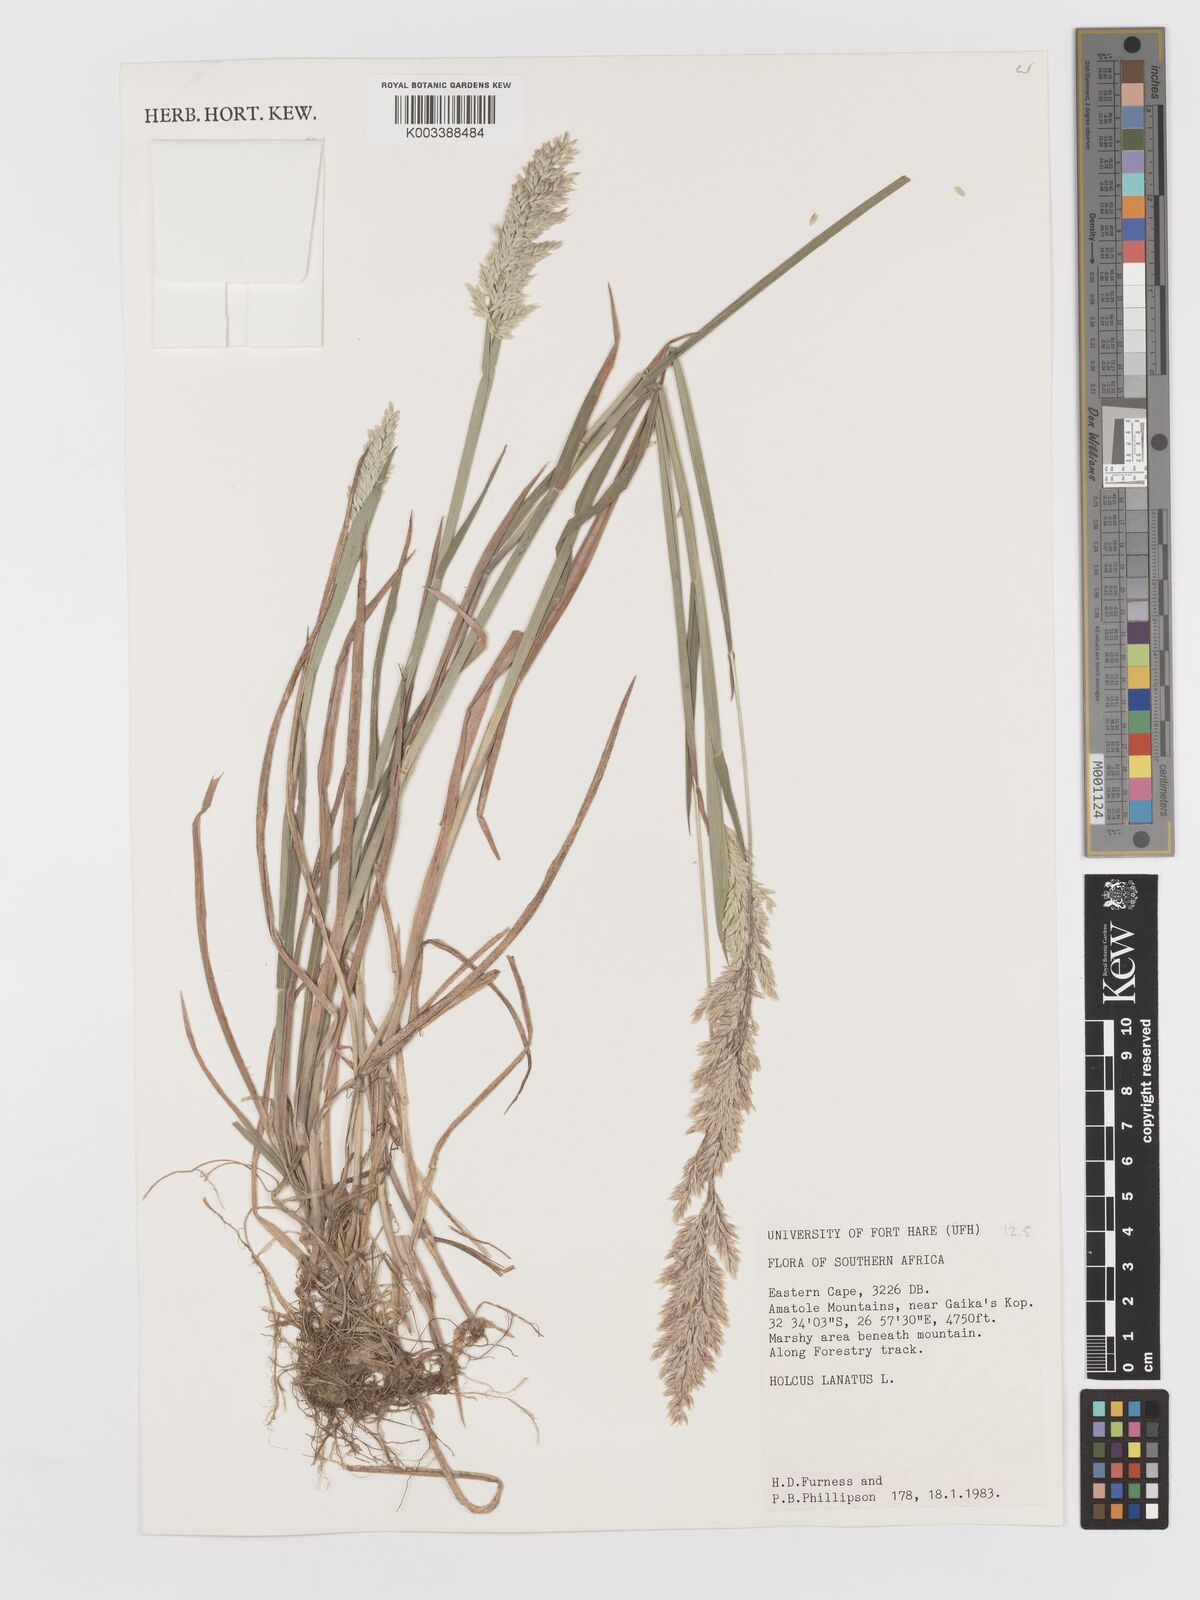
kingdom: Plantae
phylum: Tracheophyta
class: Liliopsida
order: Poales
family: Poaceae
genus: Holcus
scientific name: Holcus lanatus
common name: Yorkshire-fog
